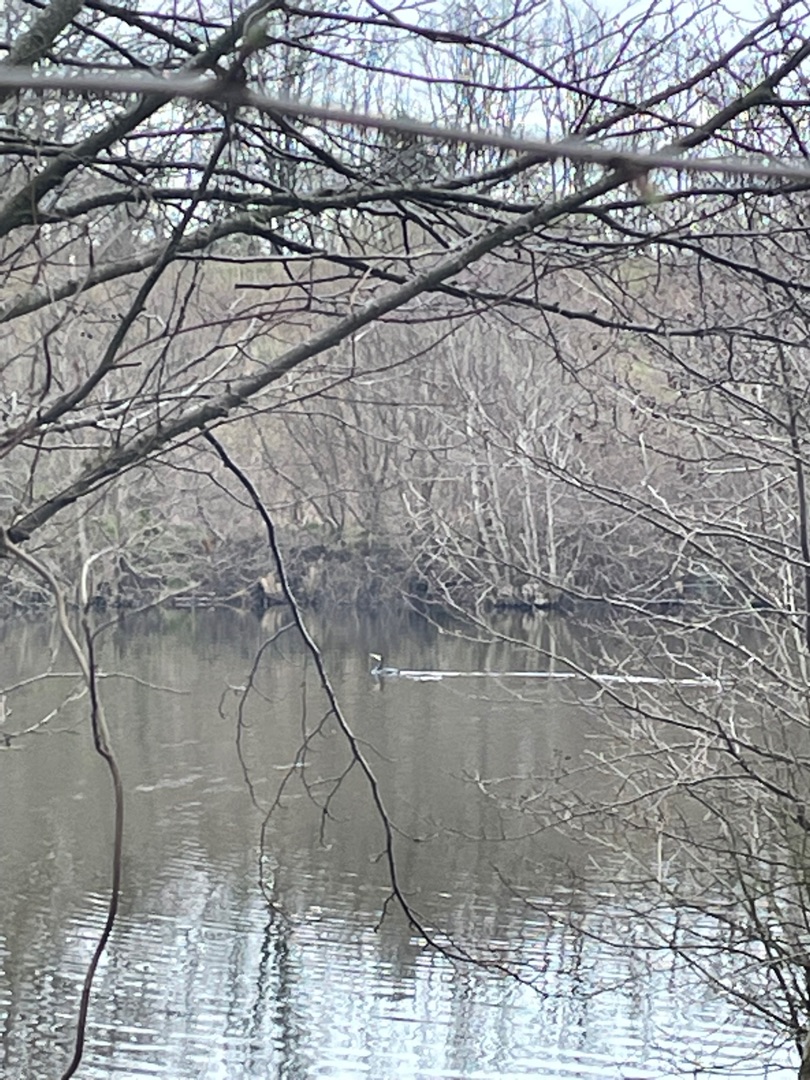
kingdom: Animalia
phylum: Chordata
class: Aves
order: Suliformes
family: Phalacrocoracidae
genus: Phalacrocorax
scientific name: Phalacrocorax carbo
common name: Skarv
